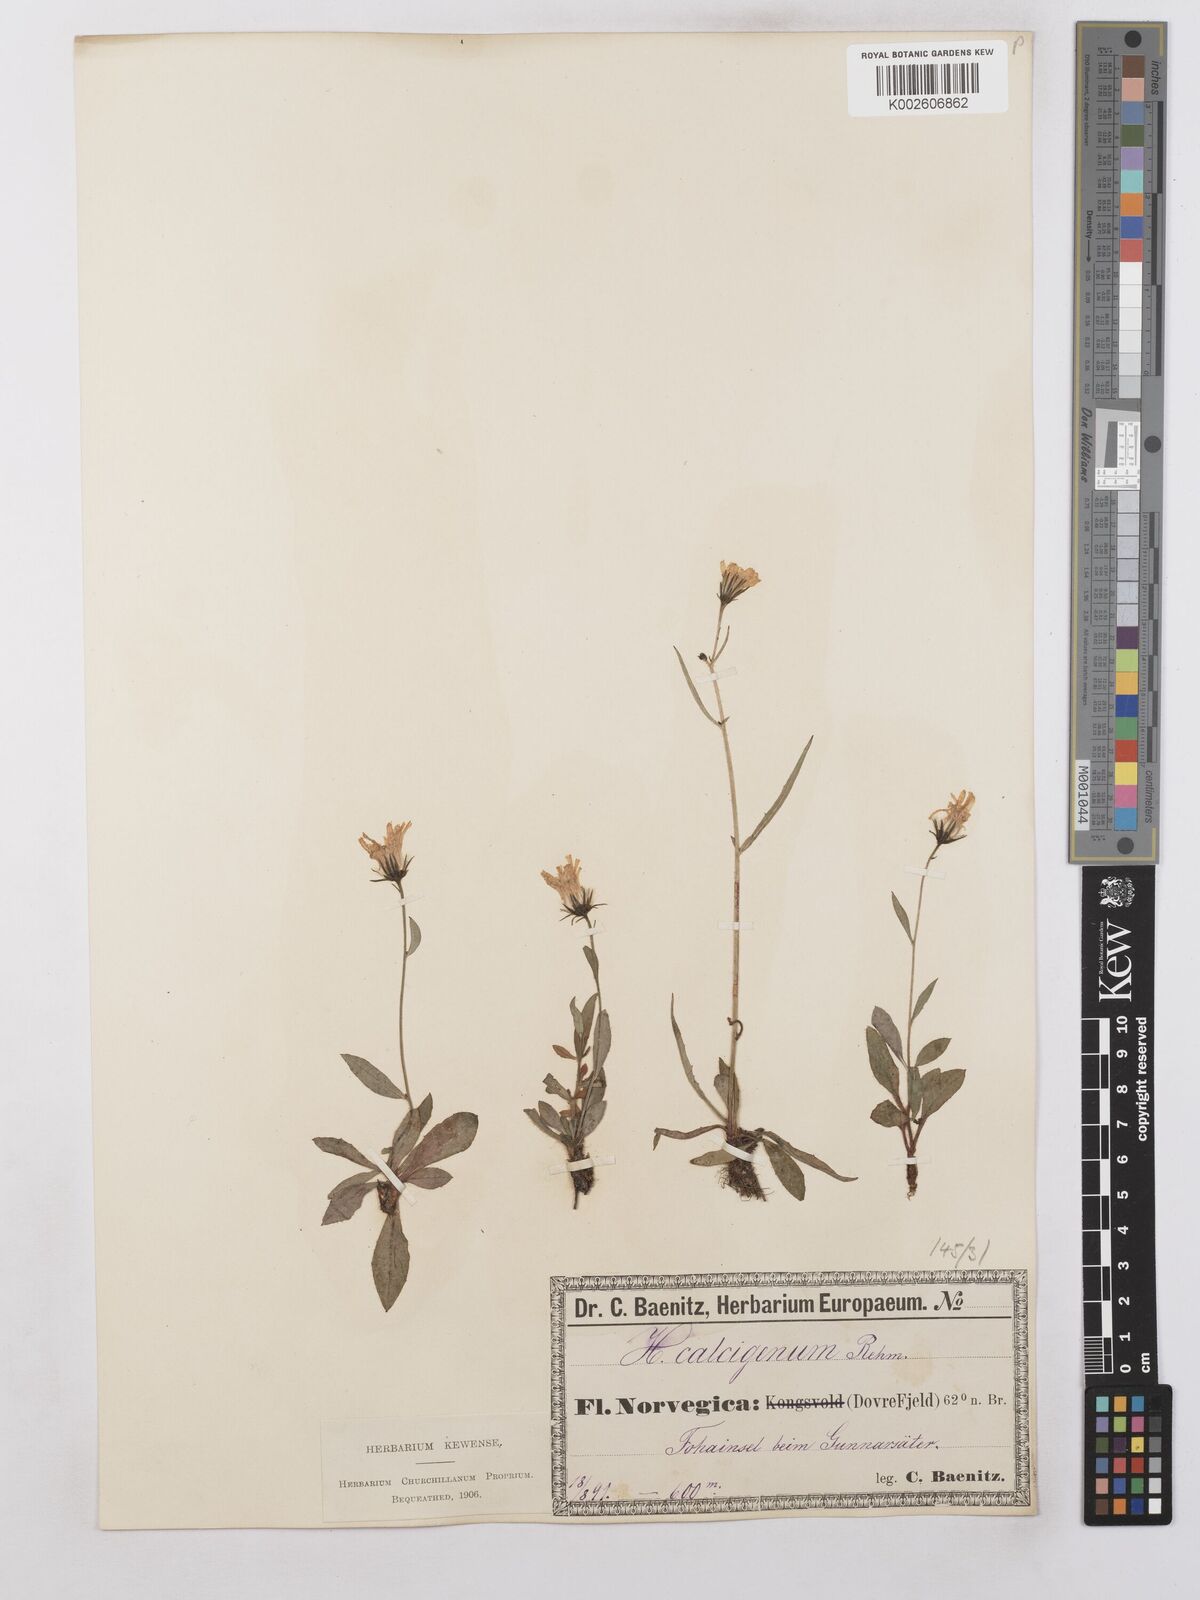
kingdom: Plantae
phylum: Tracheophyta
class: Magnoliopsida
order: Asterales
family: Asteraceae
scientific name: Asteraceae
